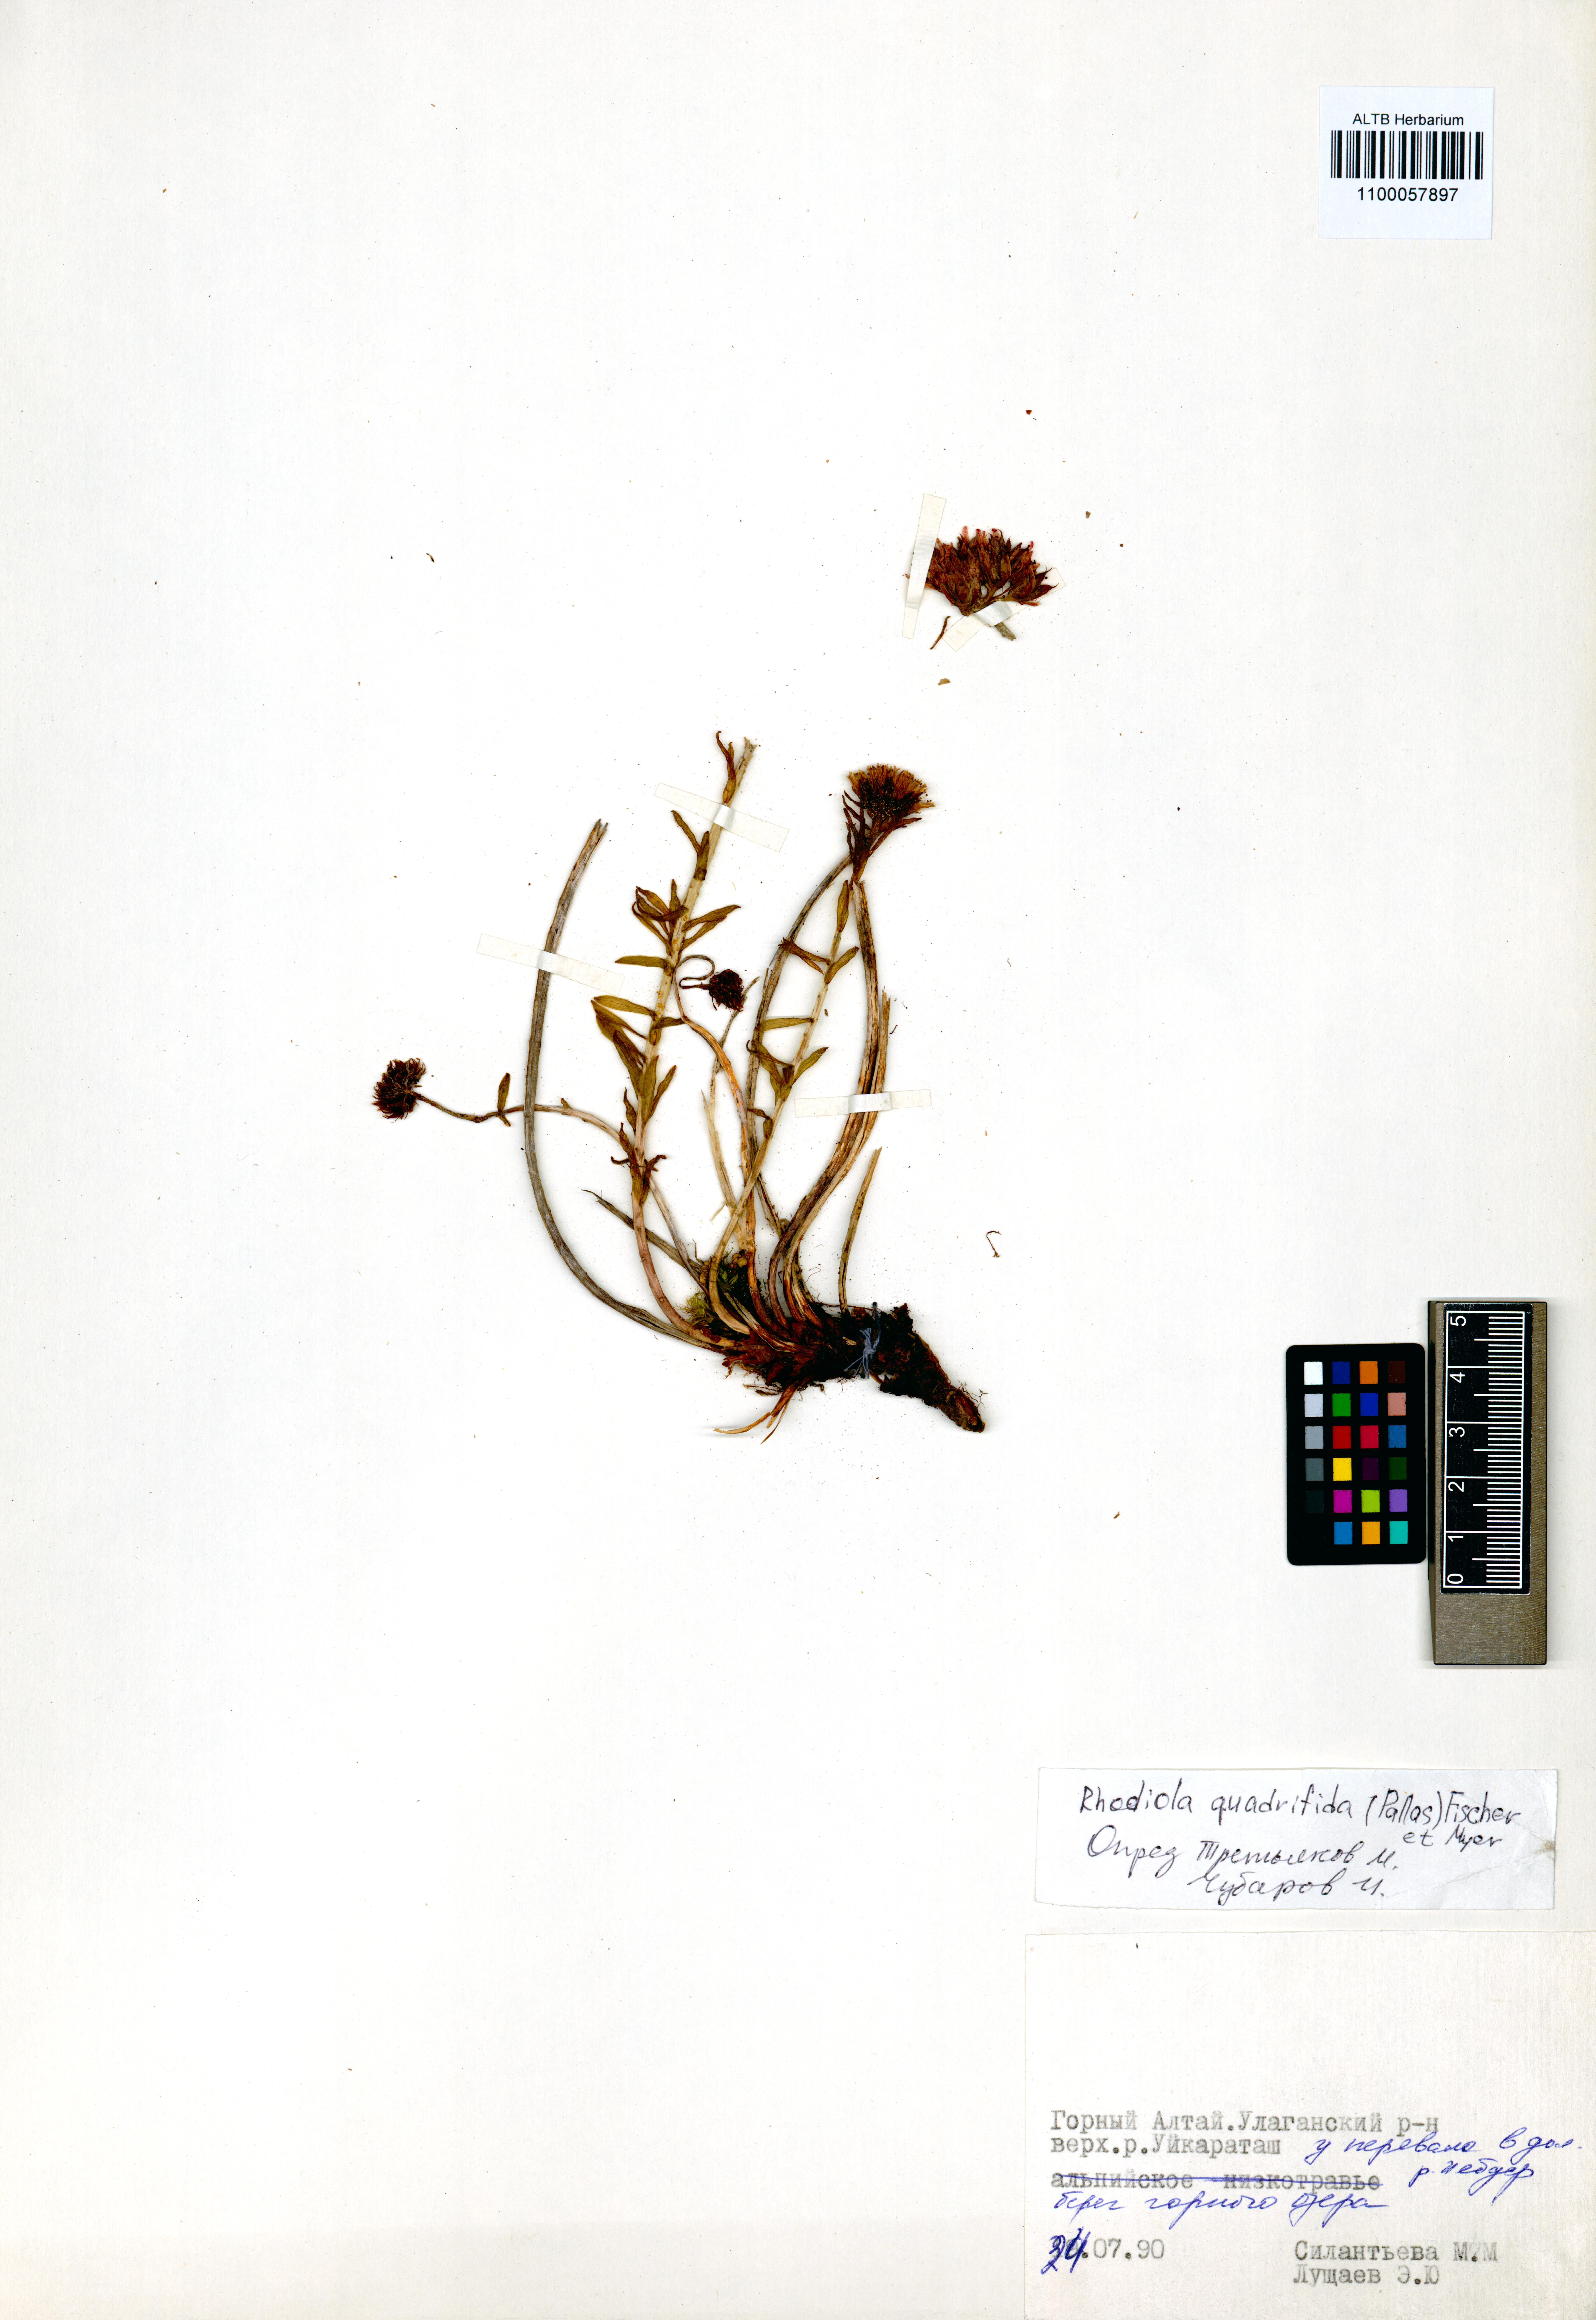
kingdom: Plantae
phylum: Tracheophyta
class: Magnoliopsida
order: Saxifragales
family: Crassulaceae
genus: Rhodiola
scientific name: Rhodiola quadrifida
